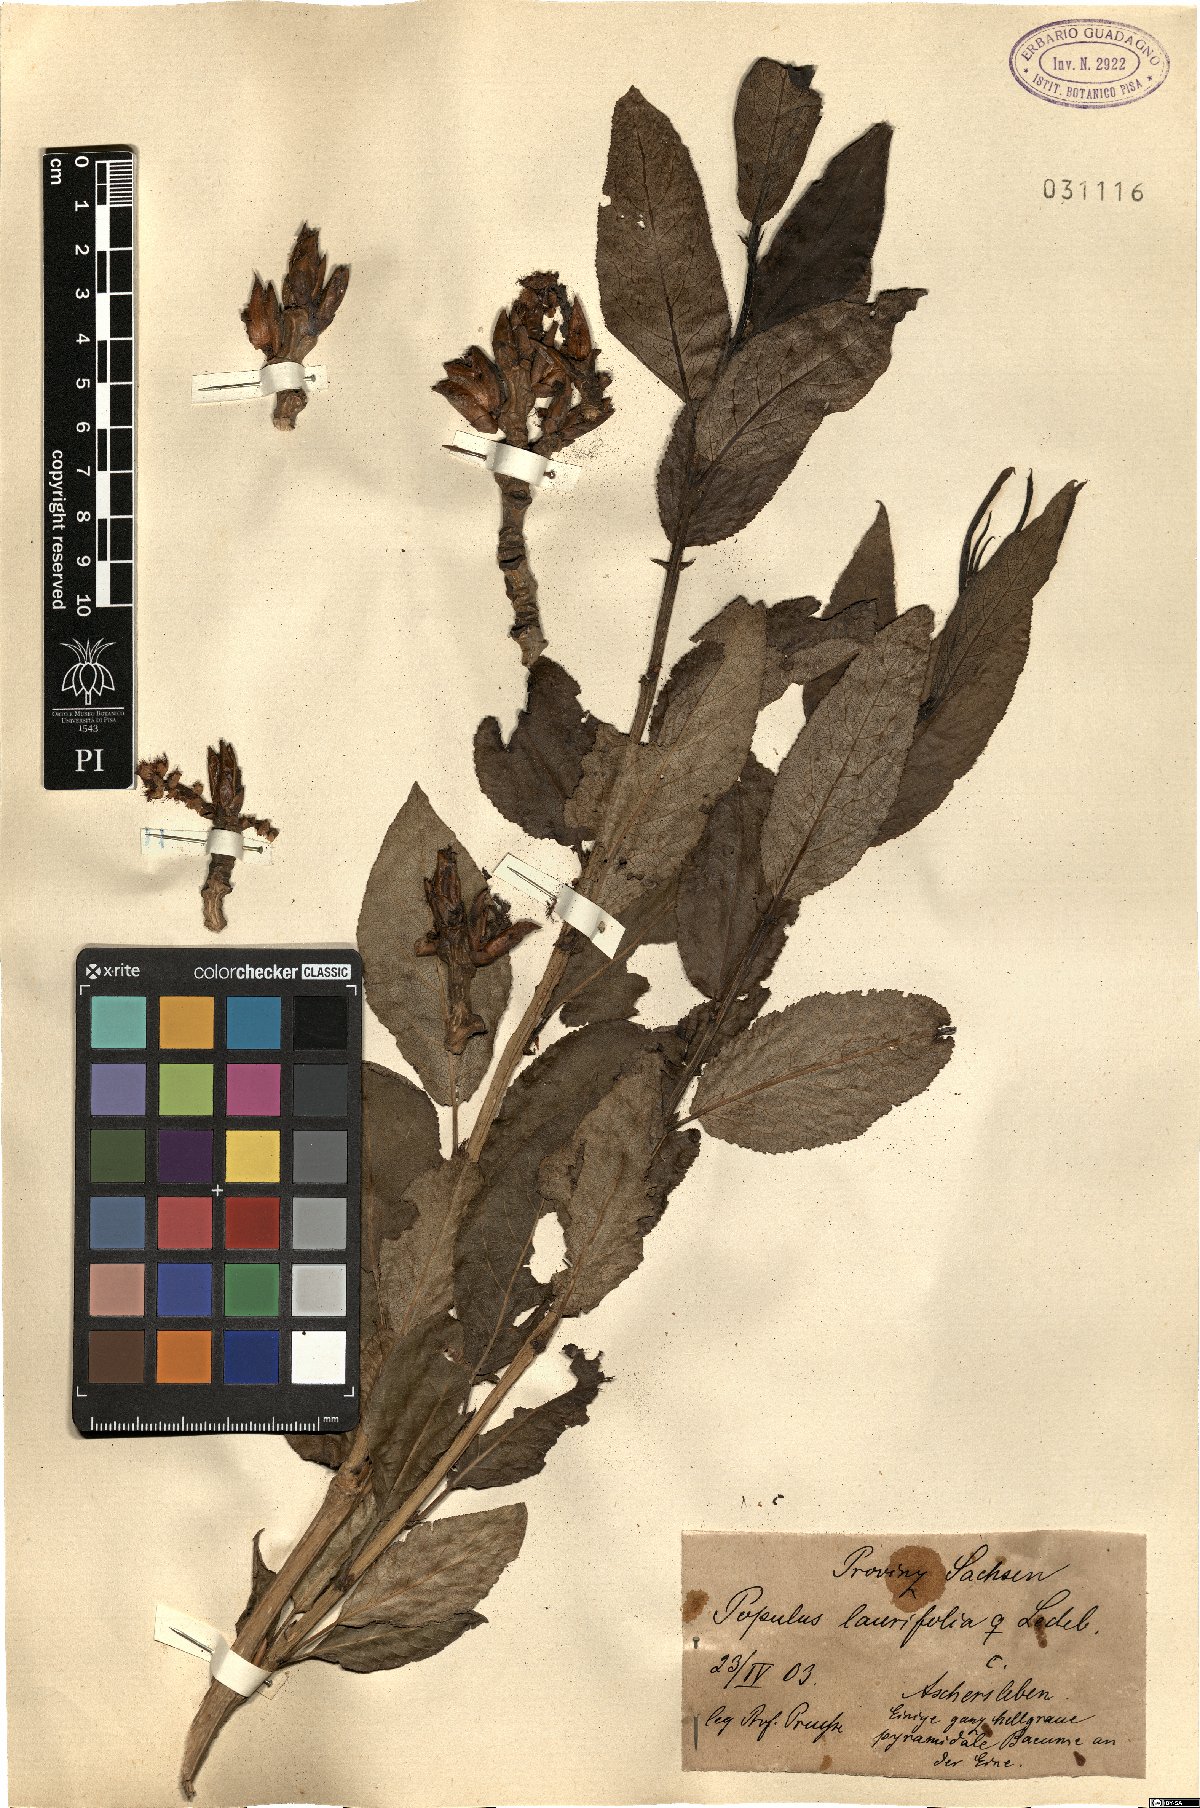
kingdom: Plantae
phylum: Tracheophyta
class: Magnoliopsida
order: Malpighiales
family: Salicaceae
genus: Populus
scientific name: Populus laurifolia
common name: Laurel-leaf poplar
